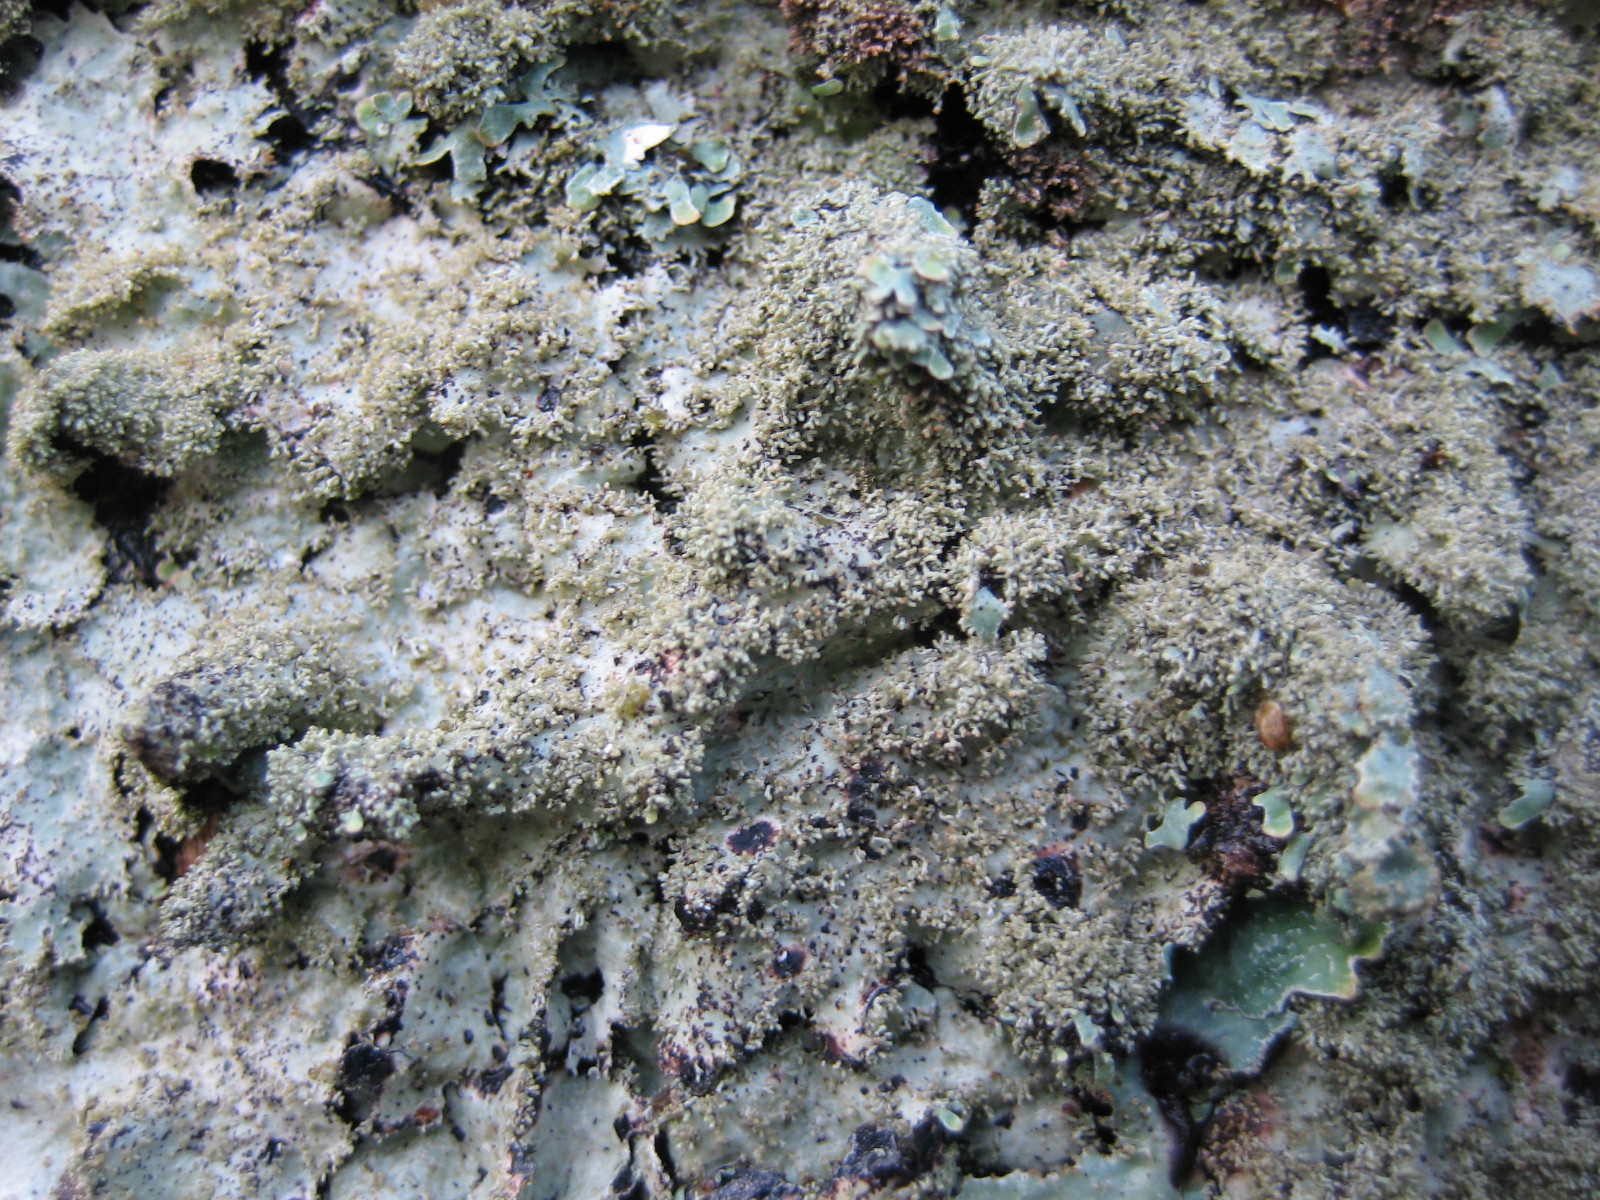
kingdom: Fungi
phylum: Ascomycota
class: Lecanoromycetes
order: Lecanorales
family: Parmeliaceae
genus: Parmelia
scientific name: Parmelia
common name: farve-skållav
